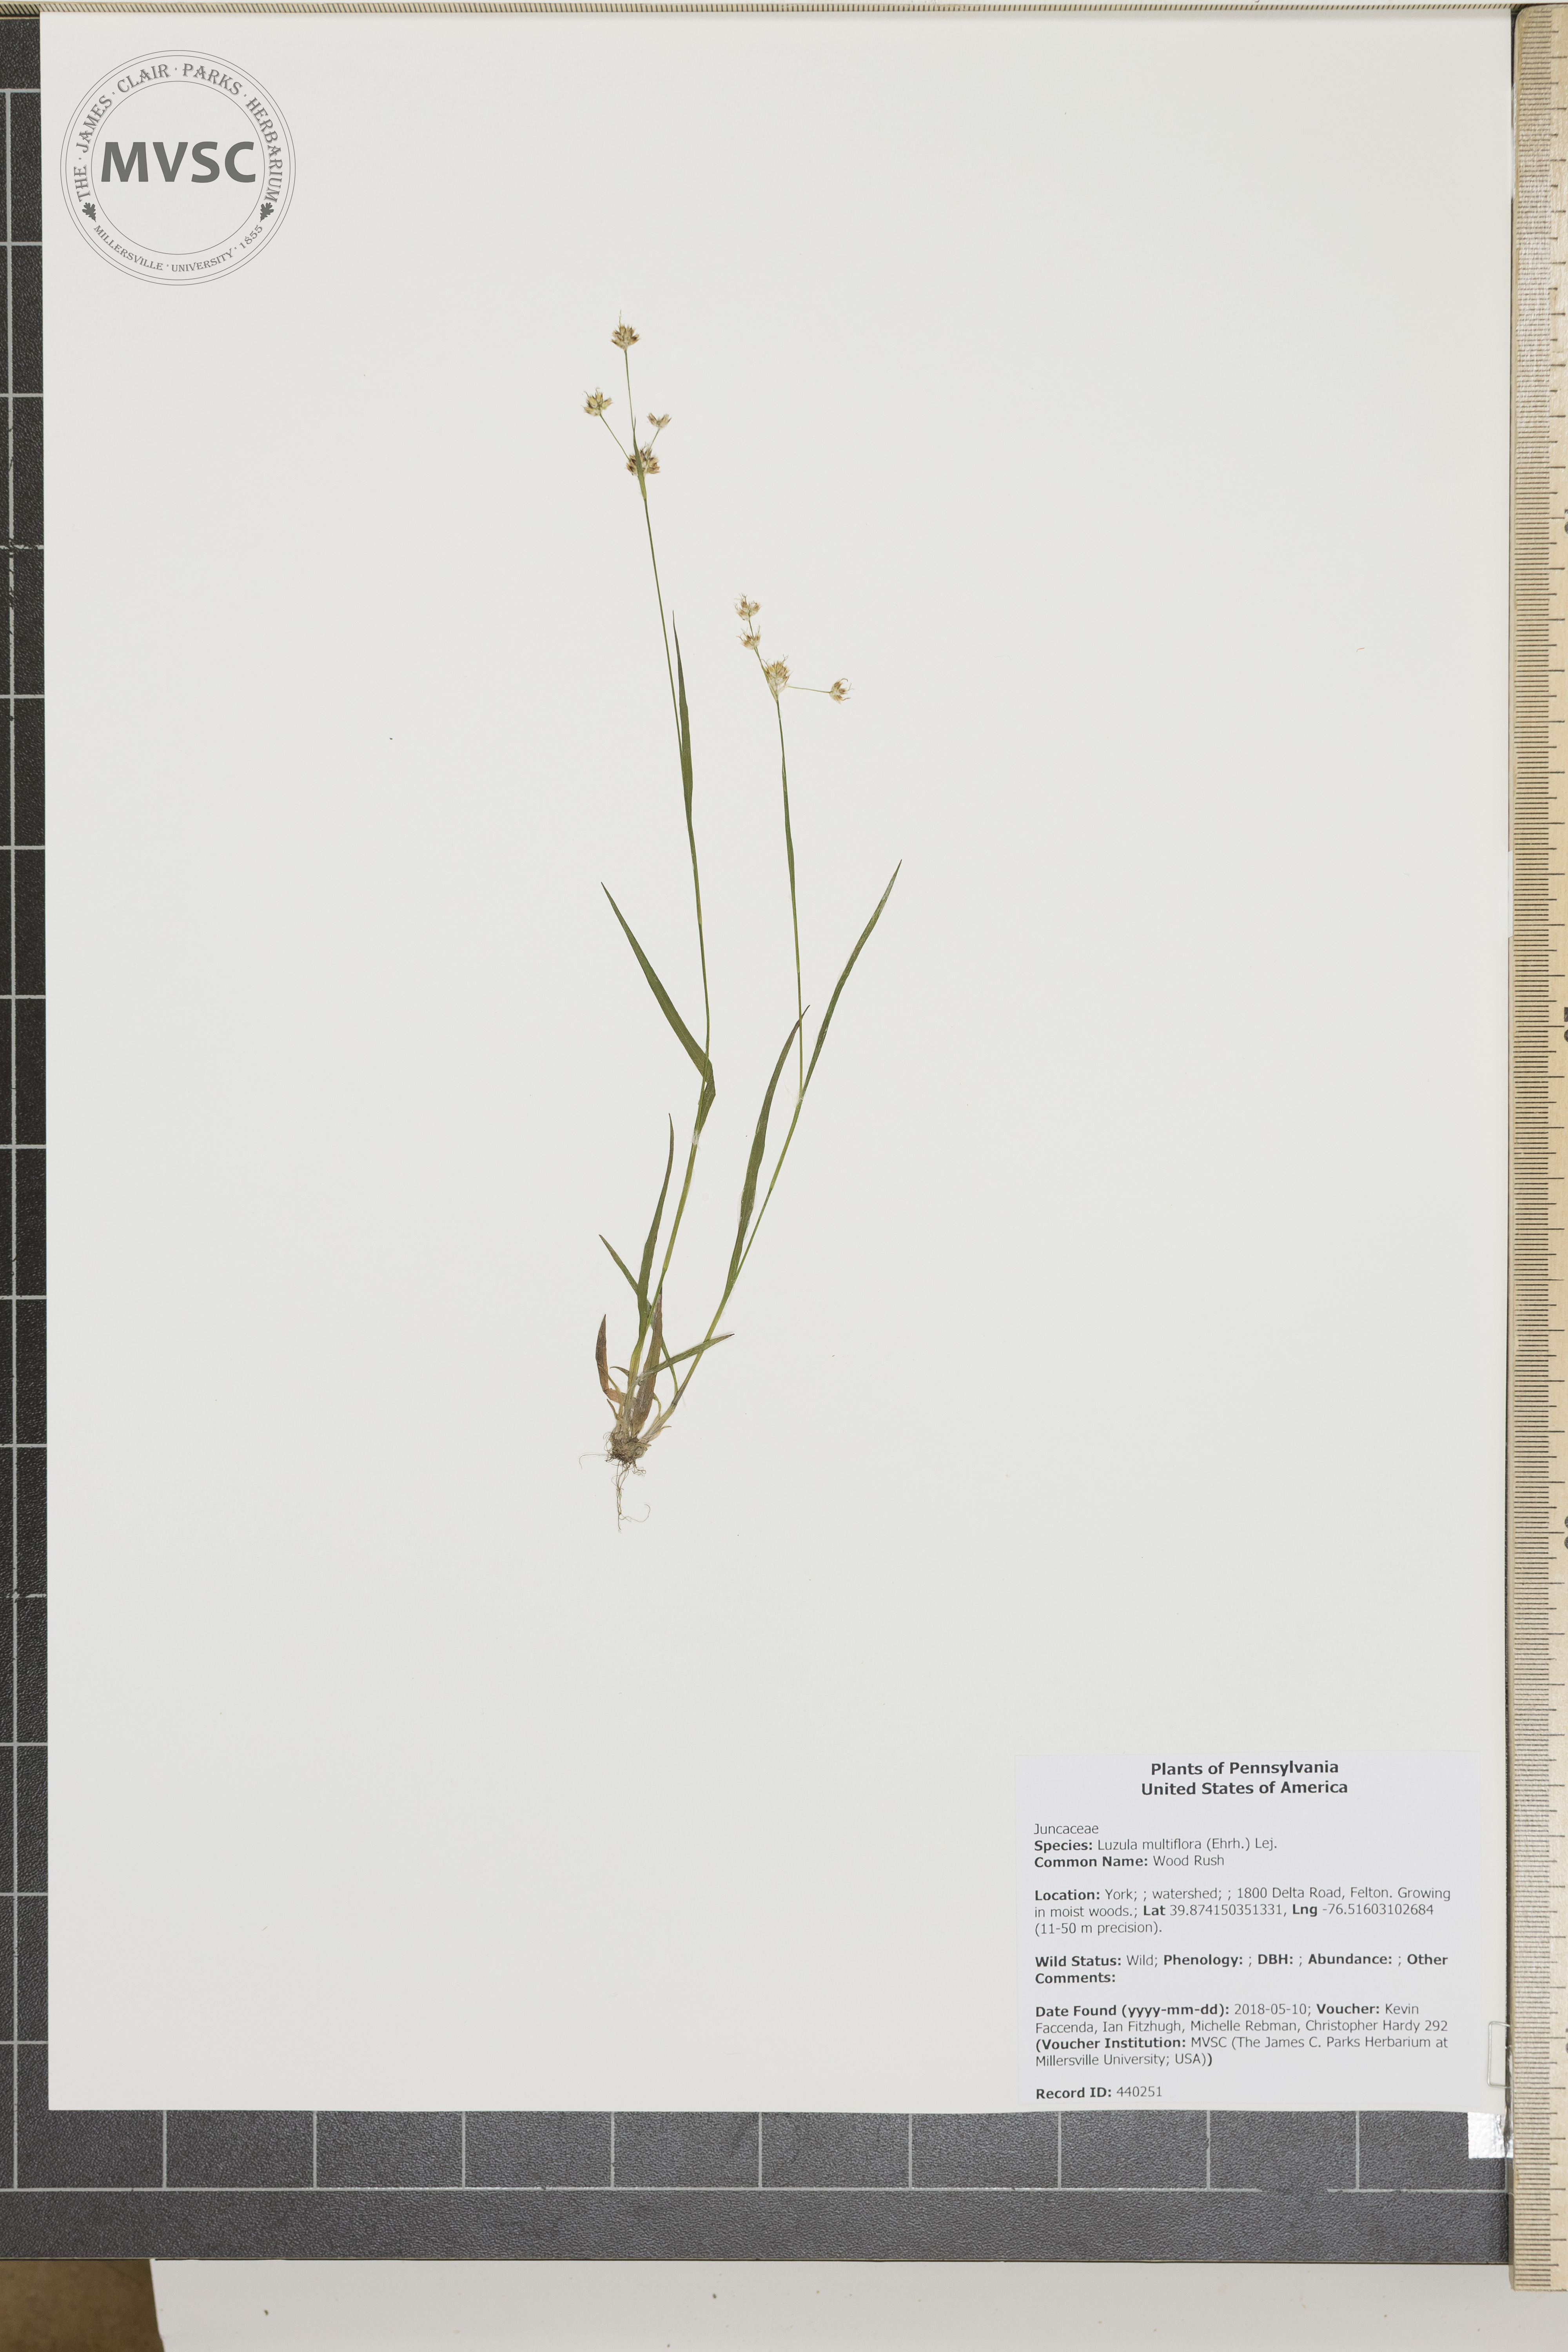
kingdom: Plantae
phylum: Tracheophyta
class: Liliopsida
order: Poales
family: Juncaceae
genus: Luzula
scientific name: Luzula multiflora
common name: Wood Rush
